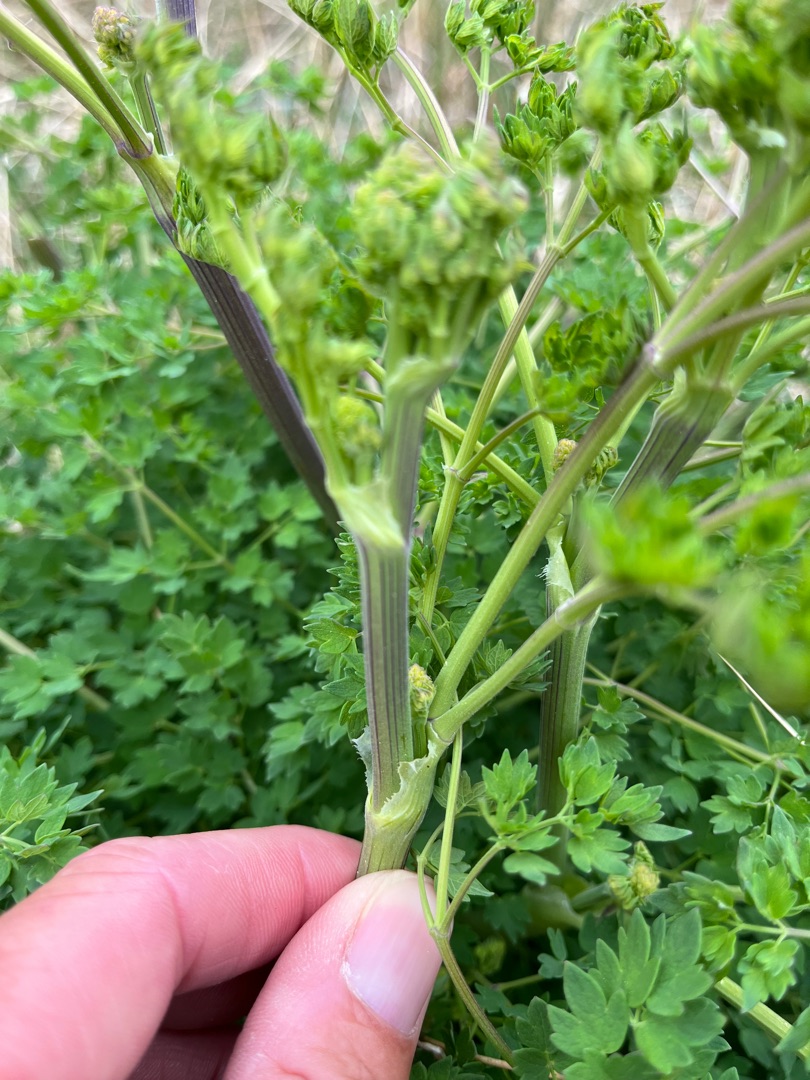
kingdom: Plantae
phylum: Tracheophyta
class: Magnoliopsida
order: Ranunculales
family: Ranunculaceae
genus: Thalictrum
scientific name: Thalictrum minus
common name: Sand-frøstjerne
